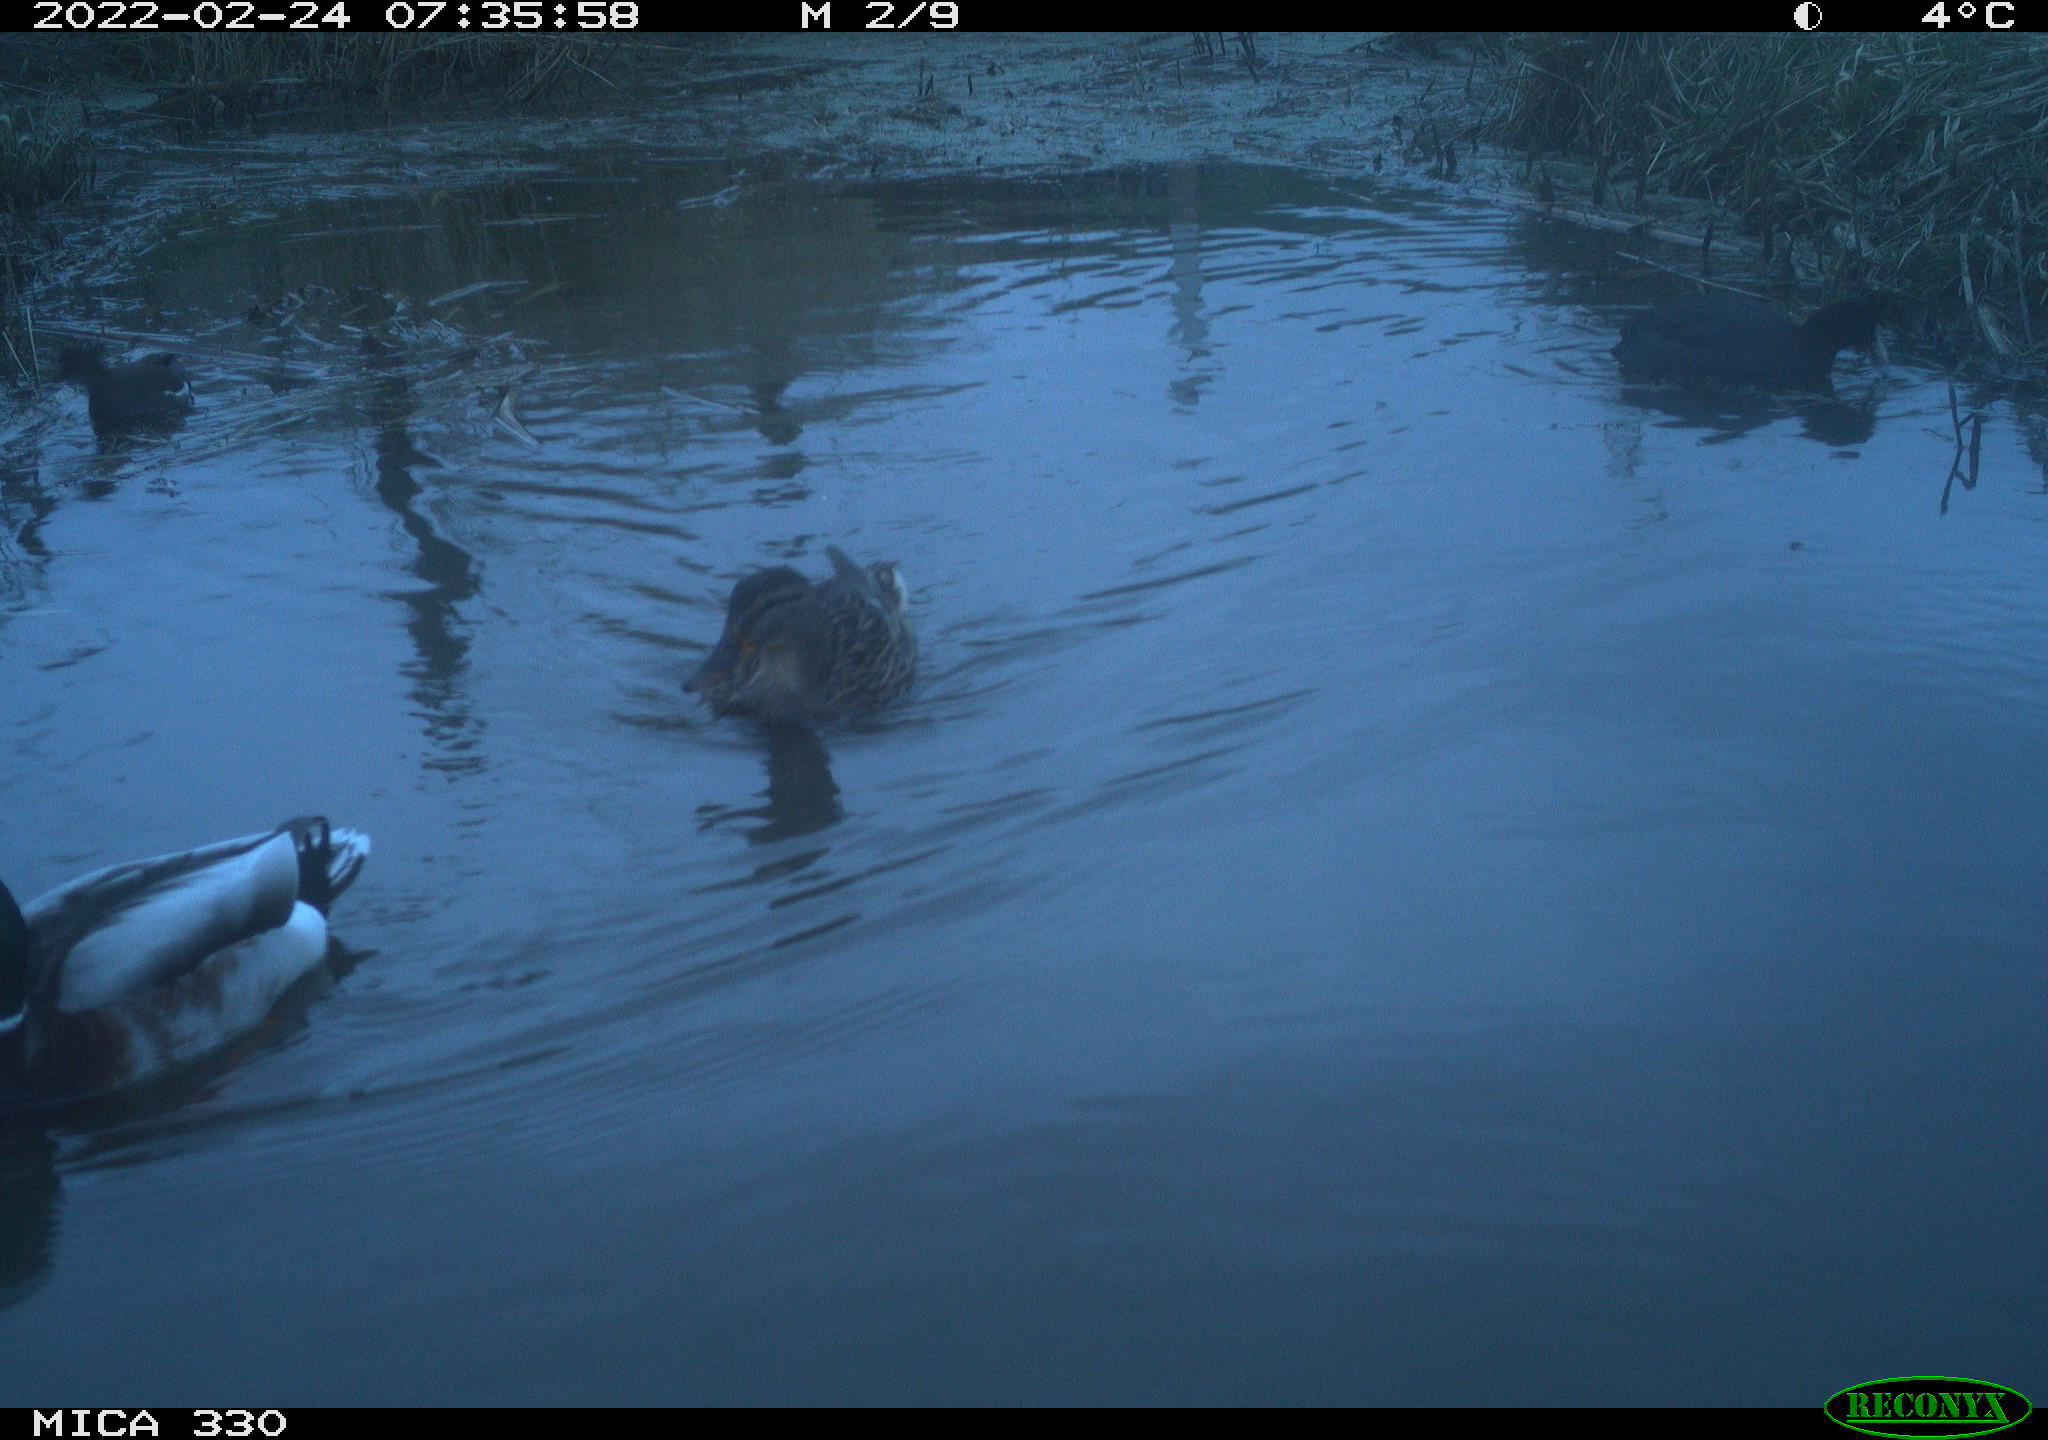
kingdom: Animalia
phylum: Chordata
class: Aves
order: Anseriformes
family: Anatidae
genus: Anas
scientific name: Anas platyrhynchos
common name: Mallard
